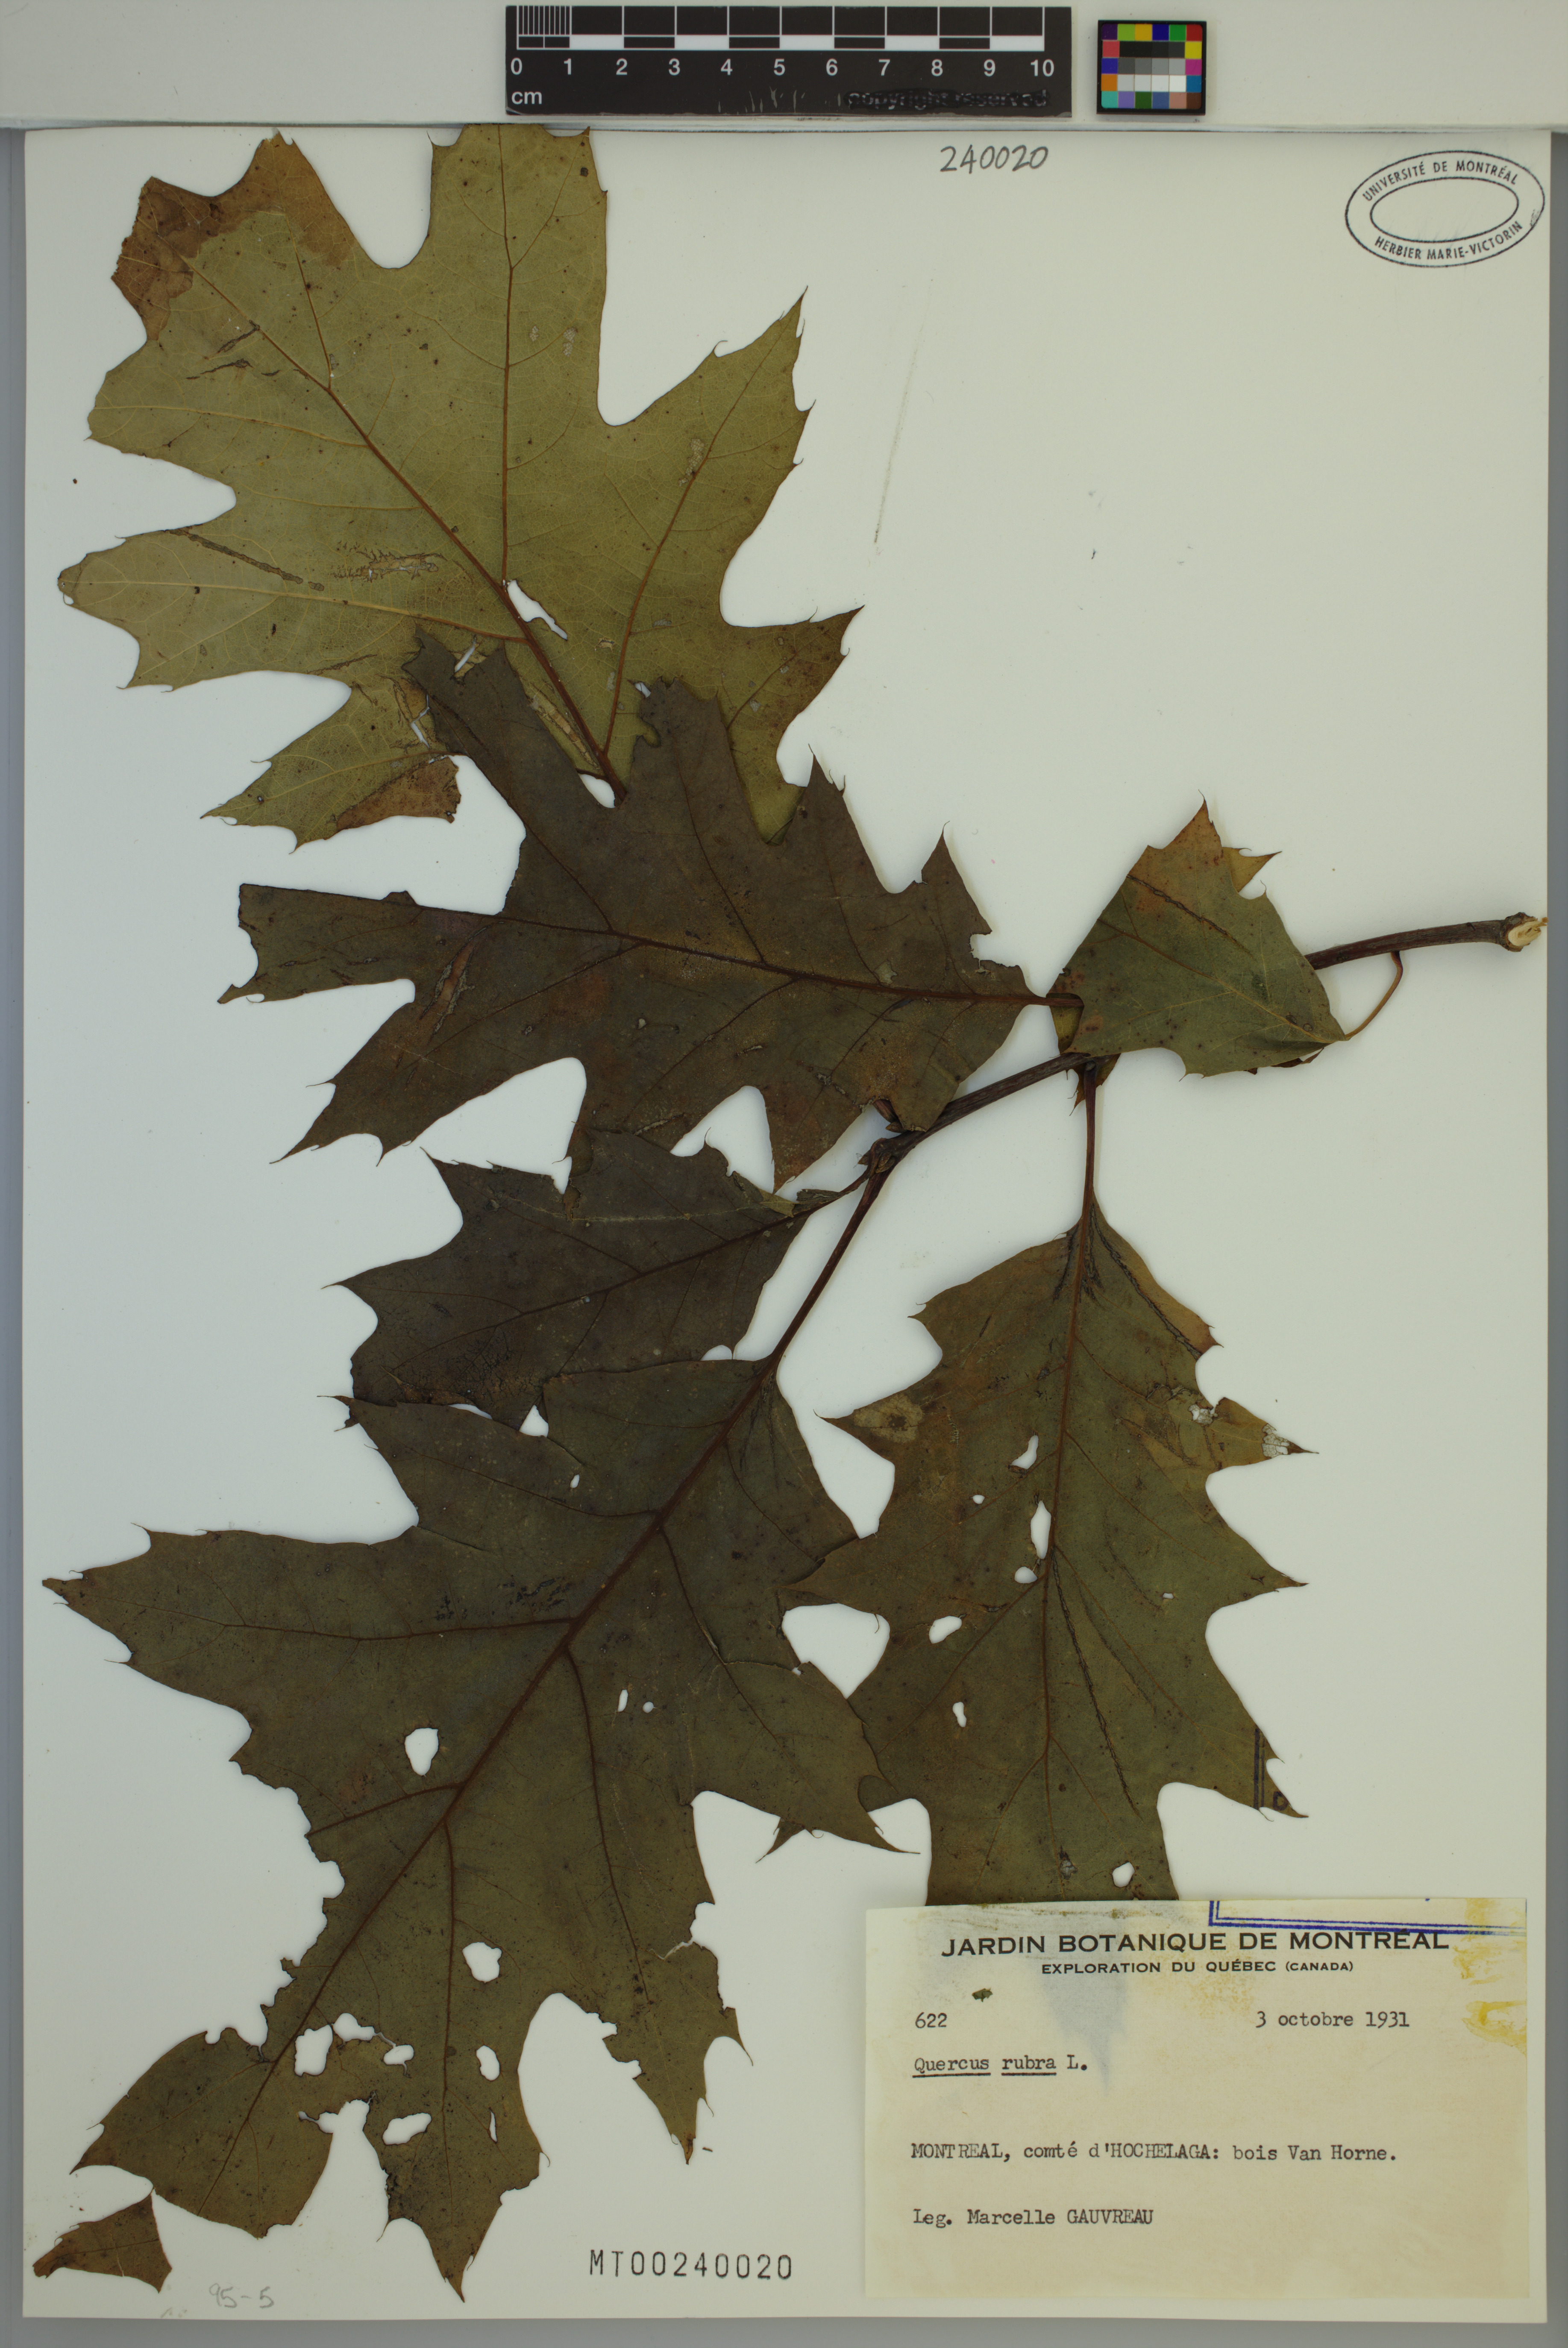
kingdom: Plantae
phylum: Tracheophyta
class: Magnoliopsida
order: Fagales
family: Fagaceae
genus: Quercus
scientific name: Quercus rubra
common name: Red oak
